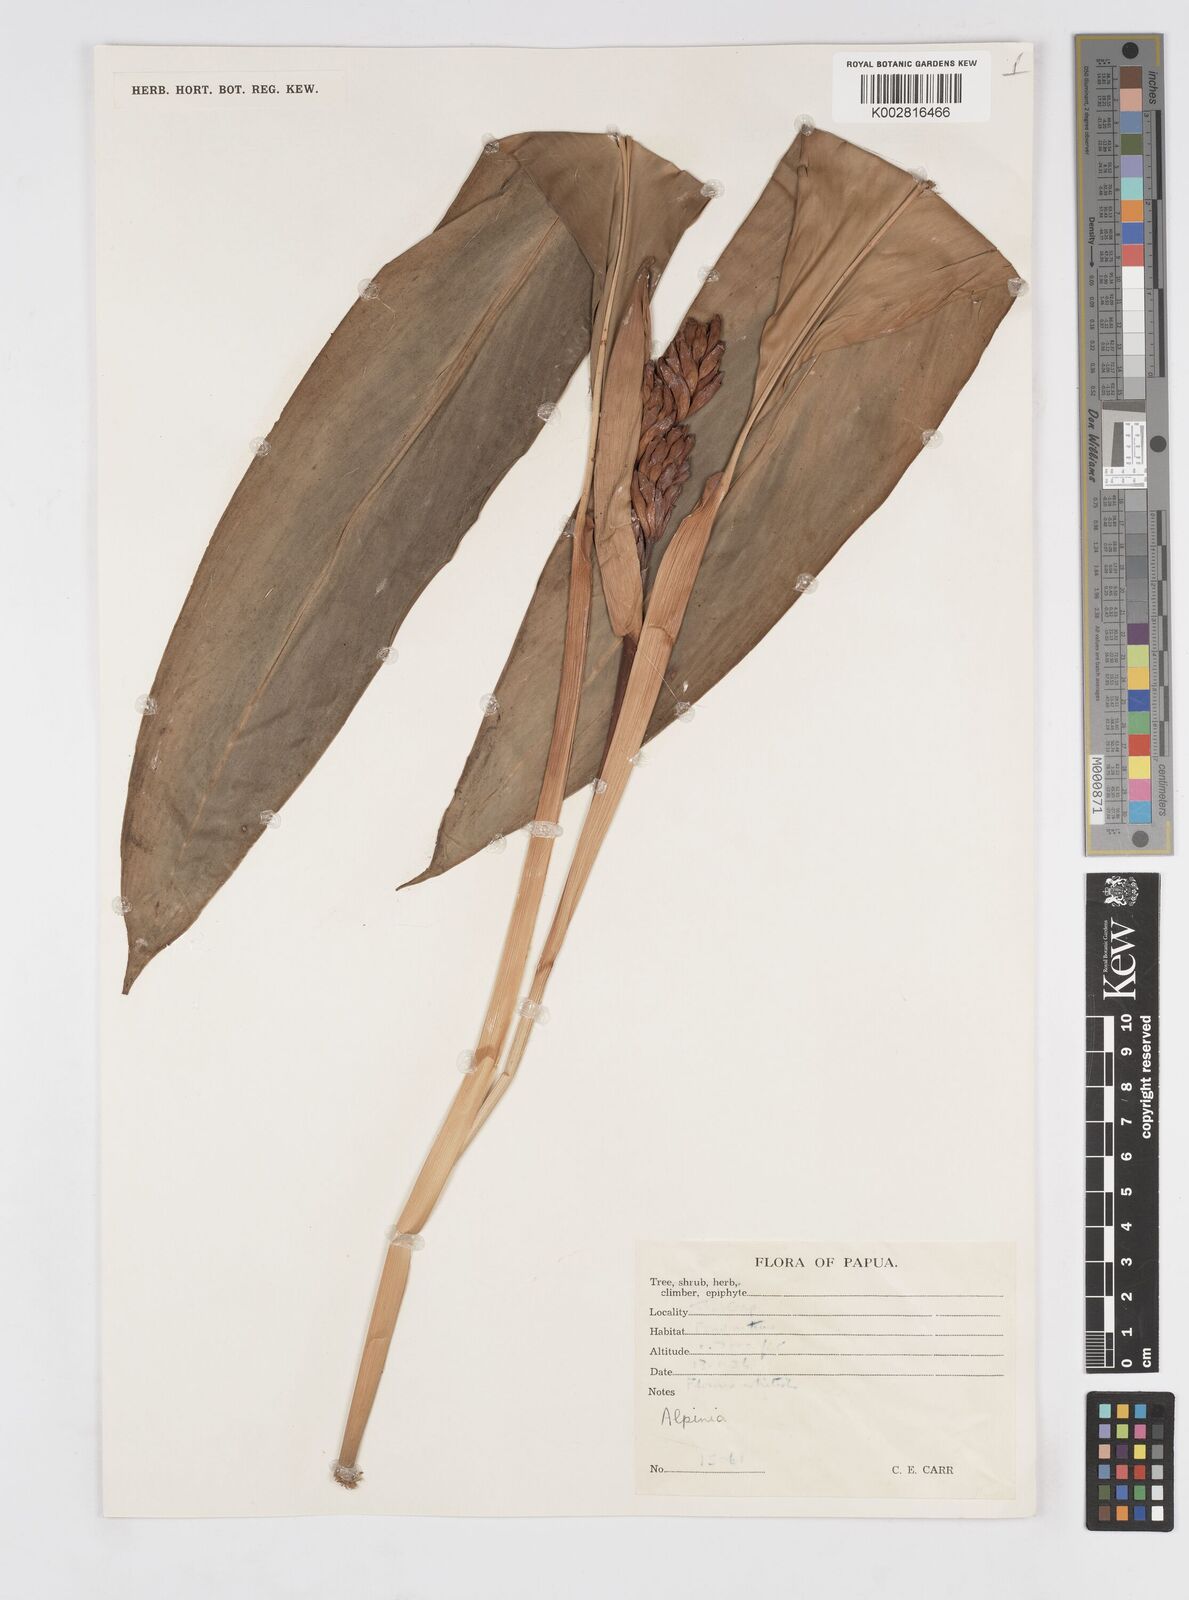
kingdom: Plantae
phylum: Tracheophyta
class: Liliopsida
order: Zingiberales
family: Zingiberaceae
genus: Alpinia
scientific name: Alpinia
